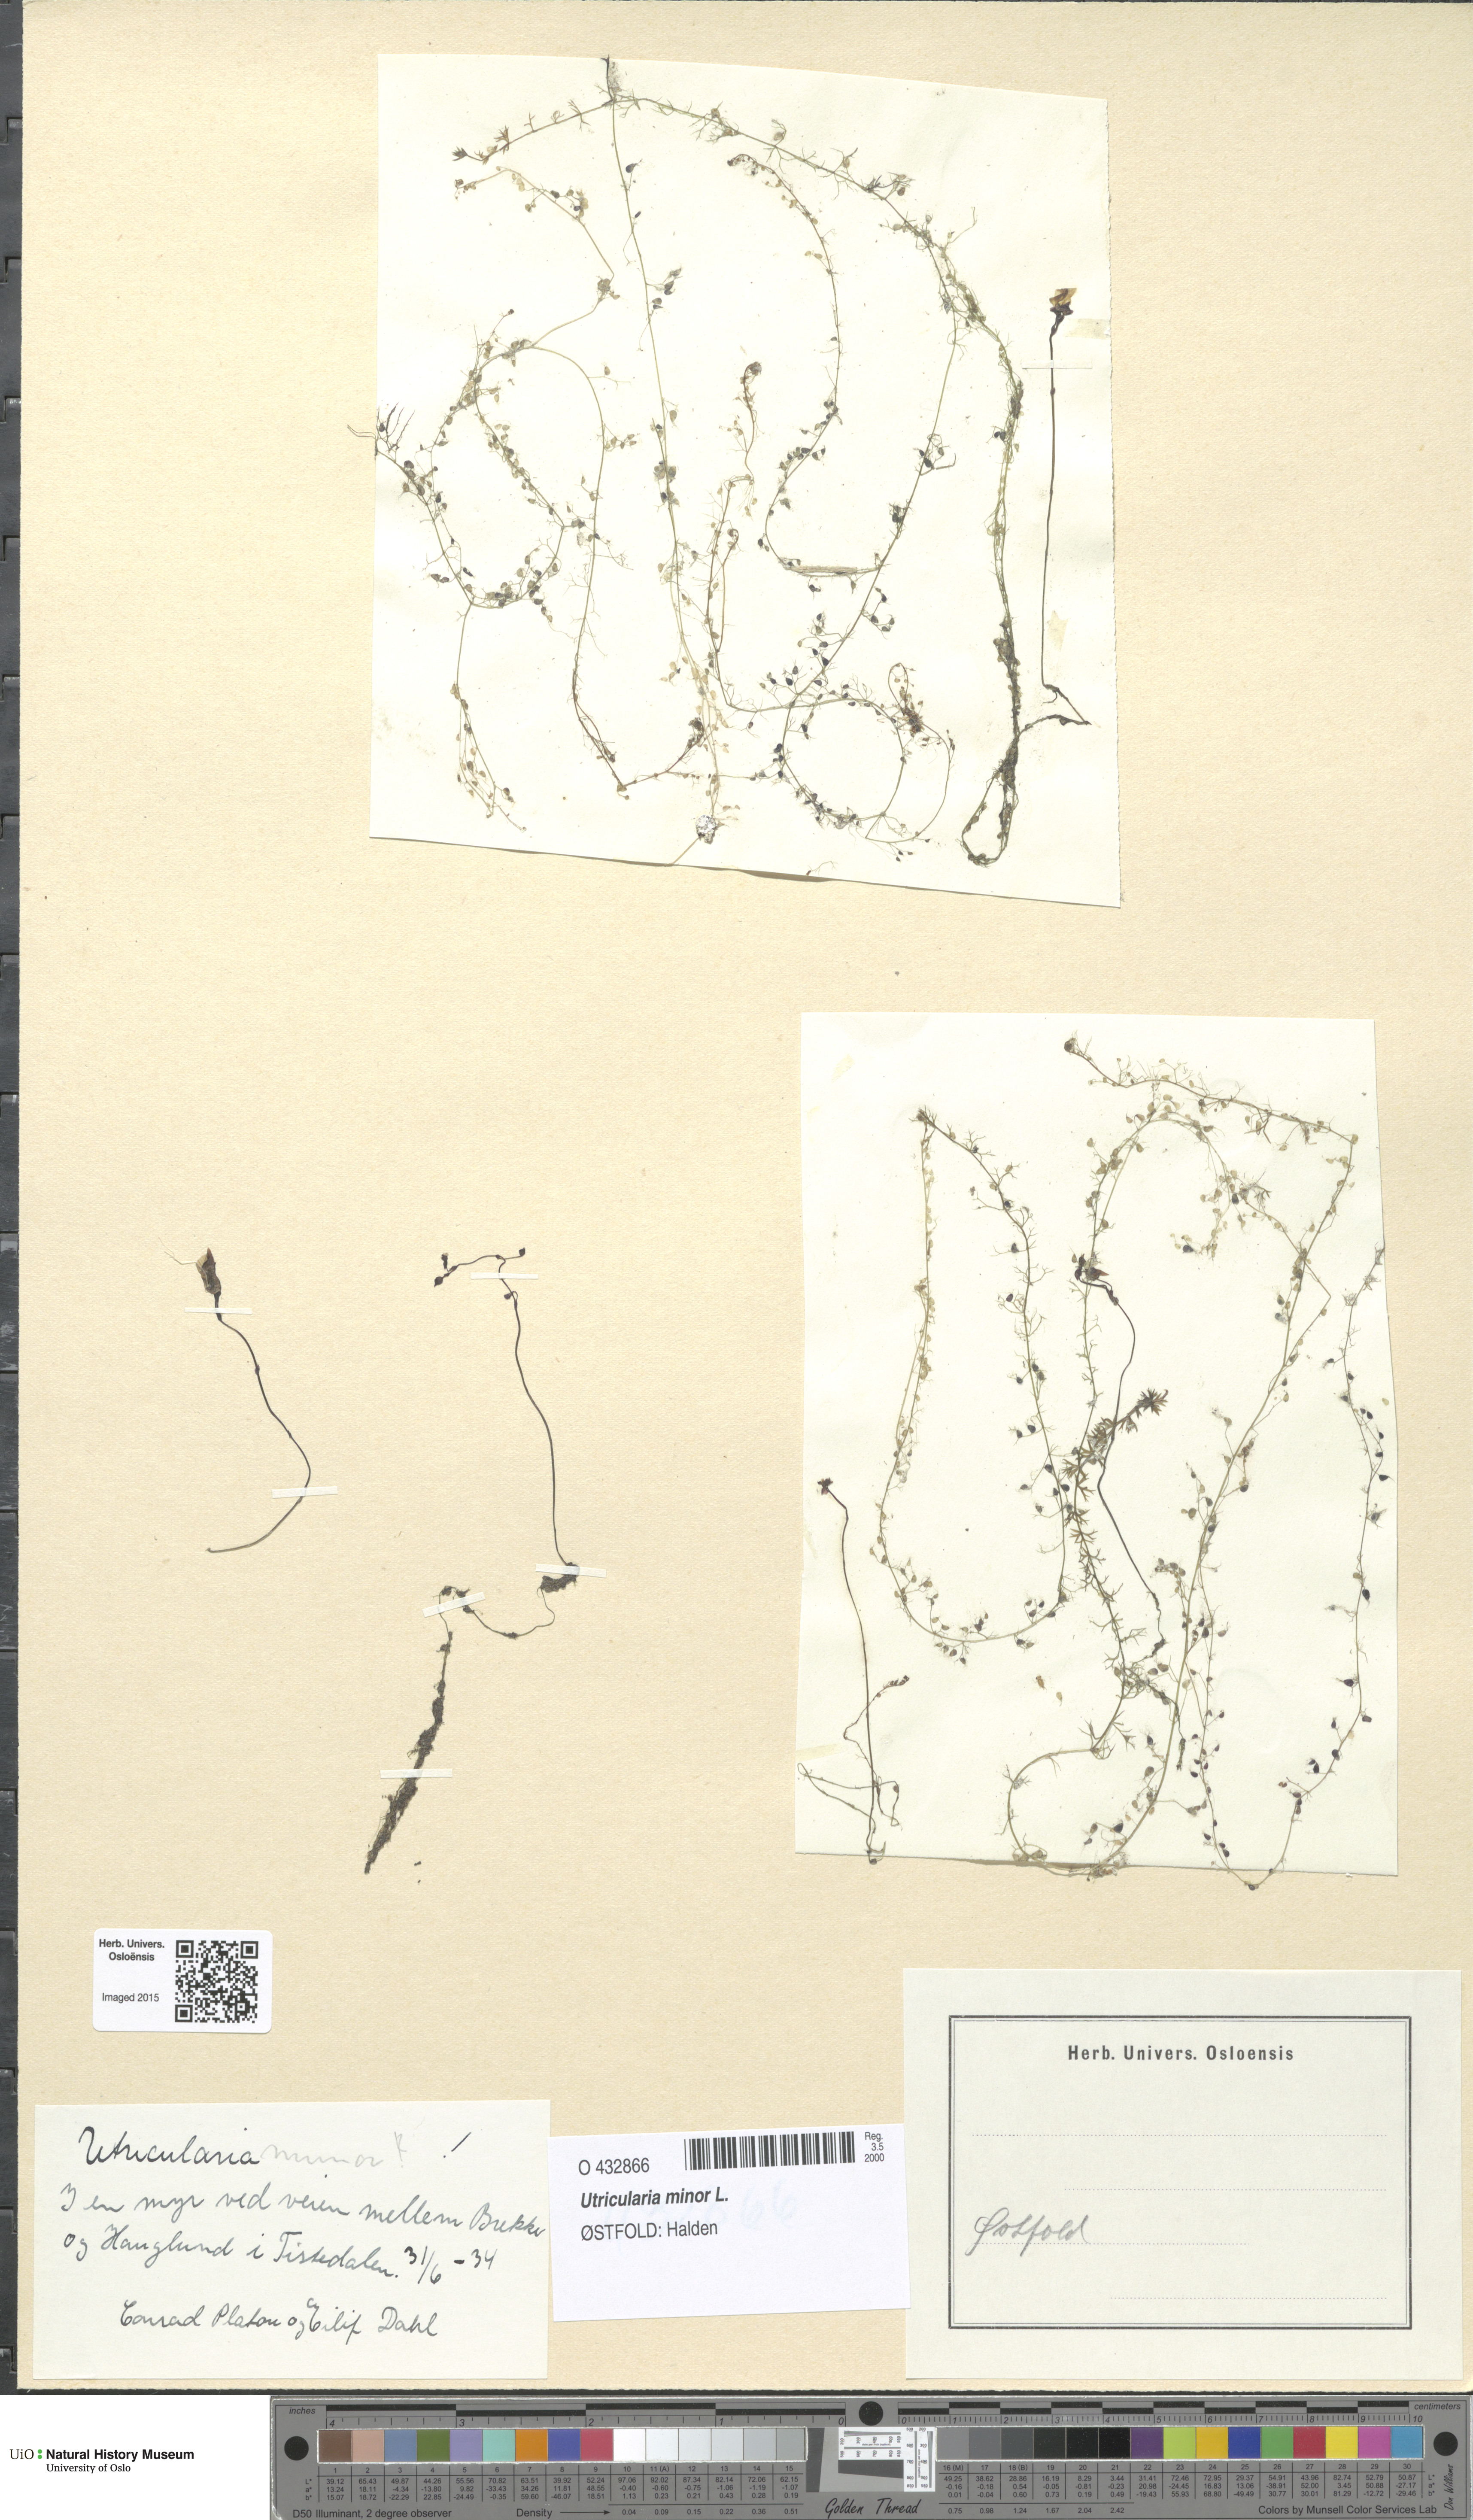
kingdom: Plantae
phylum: Tracheophyta
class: Magnoliopsida
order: Lamiales
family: Lentibulariaceae
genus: Utricularia
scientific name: Utricularia minor
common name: Lesser bladderwort
